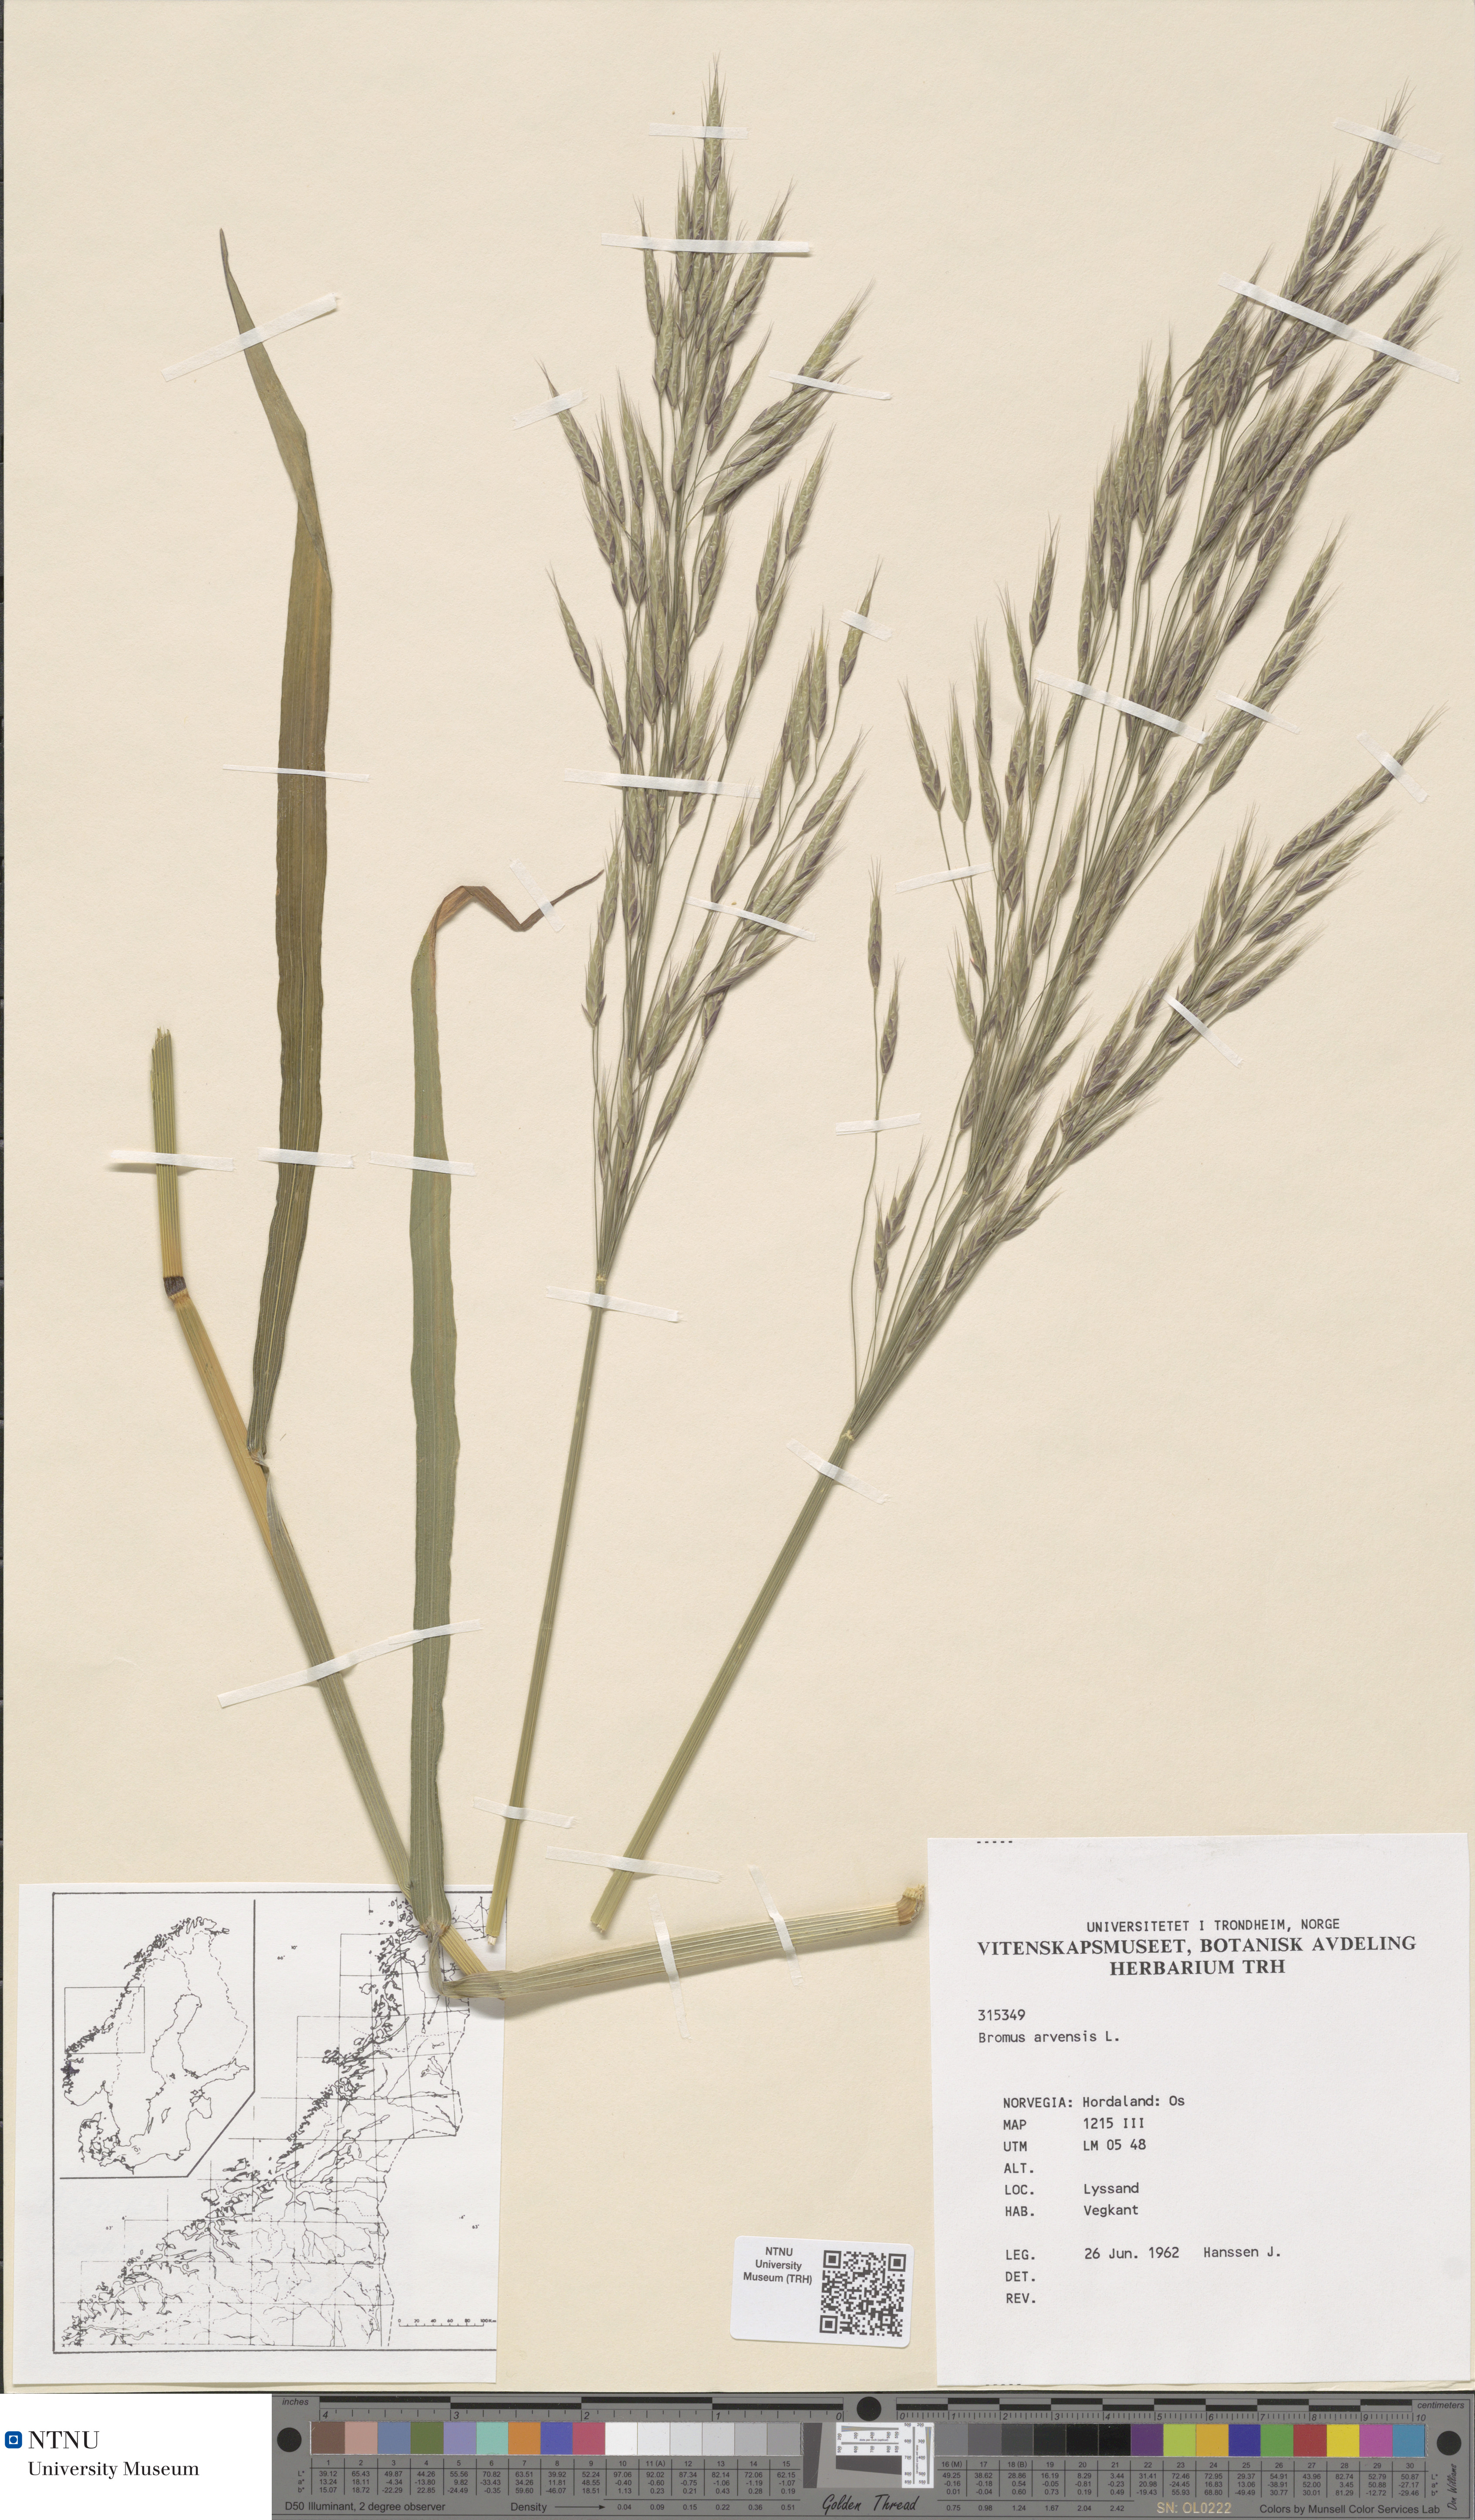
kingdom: Plantae
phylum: Tracheophyta
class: Liliopsida
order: Poales
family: Poaceae
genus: Bromus
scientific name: Bromus arvensis
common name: Field brome
